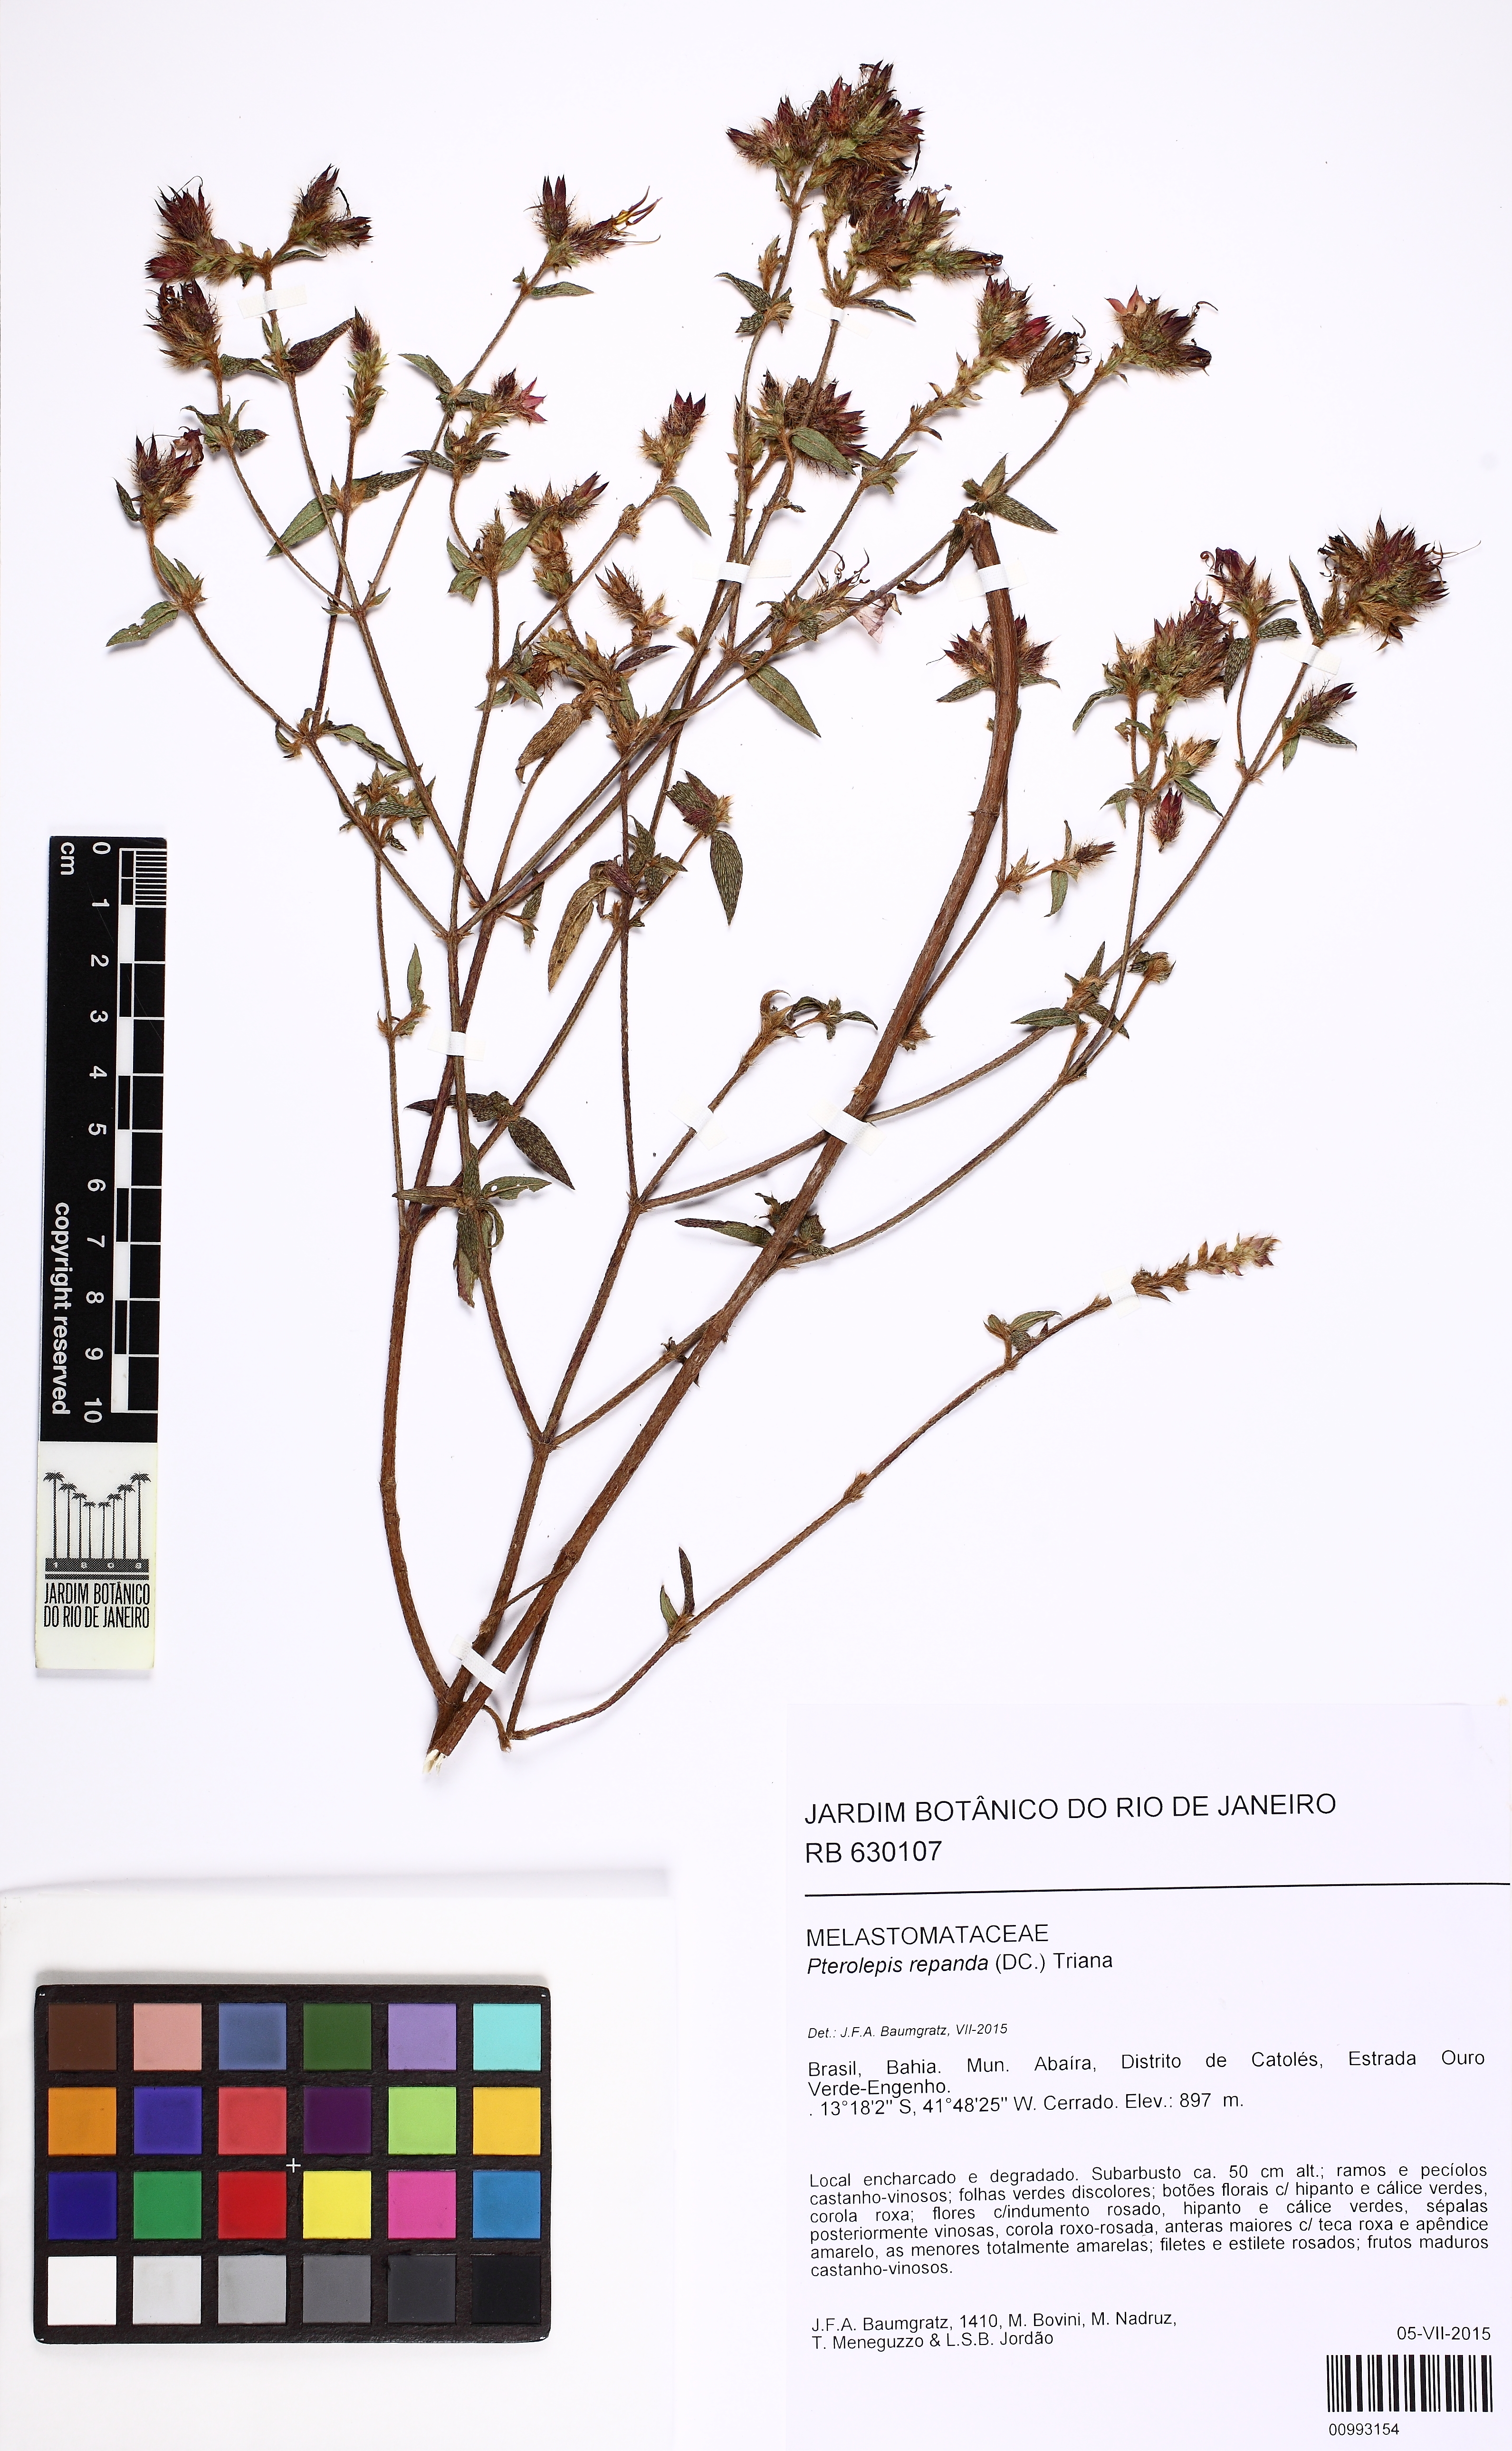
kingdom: Plantae
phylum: Tracheophyta
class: Magnoliopsida
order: Myrtales
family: Melastomataceae
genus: Pterolepis
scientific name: Pterolepis repanda
